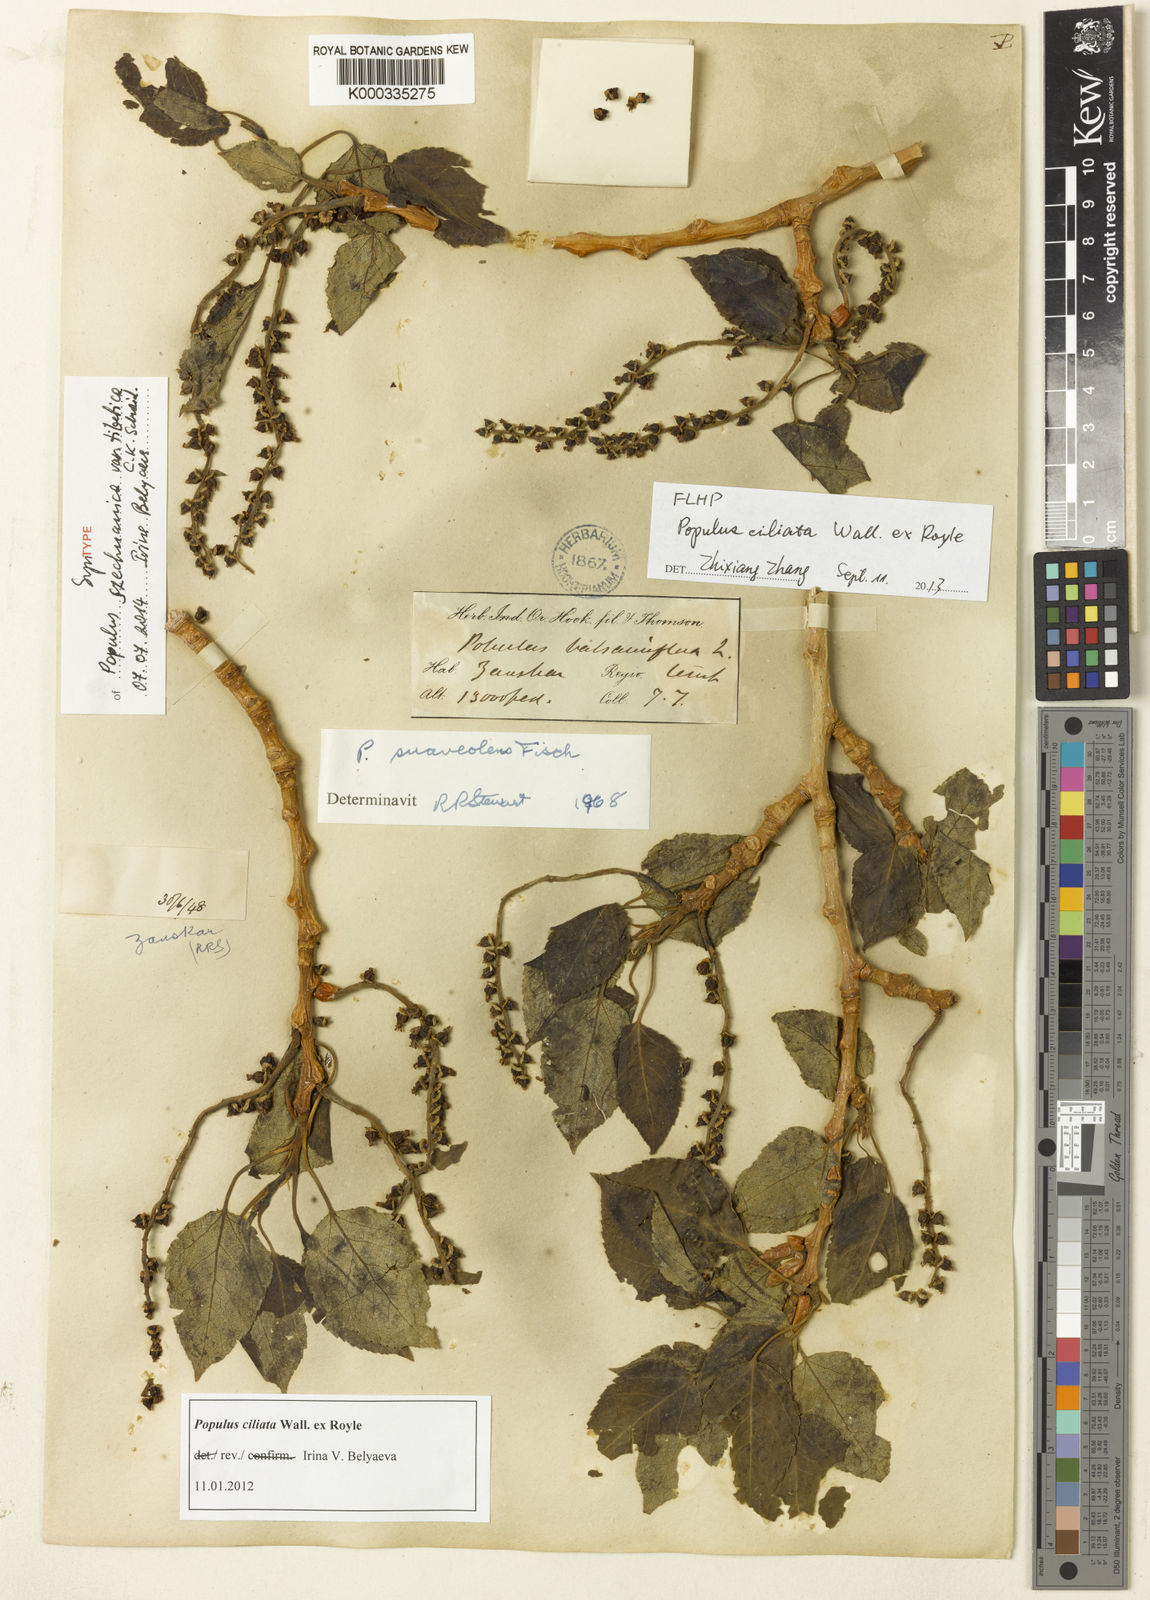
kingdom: Plantae
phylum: Tracheophyta
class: Magnoliopsida
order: Malpighiales
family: Salicaceae
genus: Populus
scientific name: Populus
